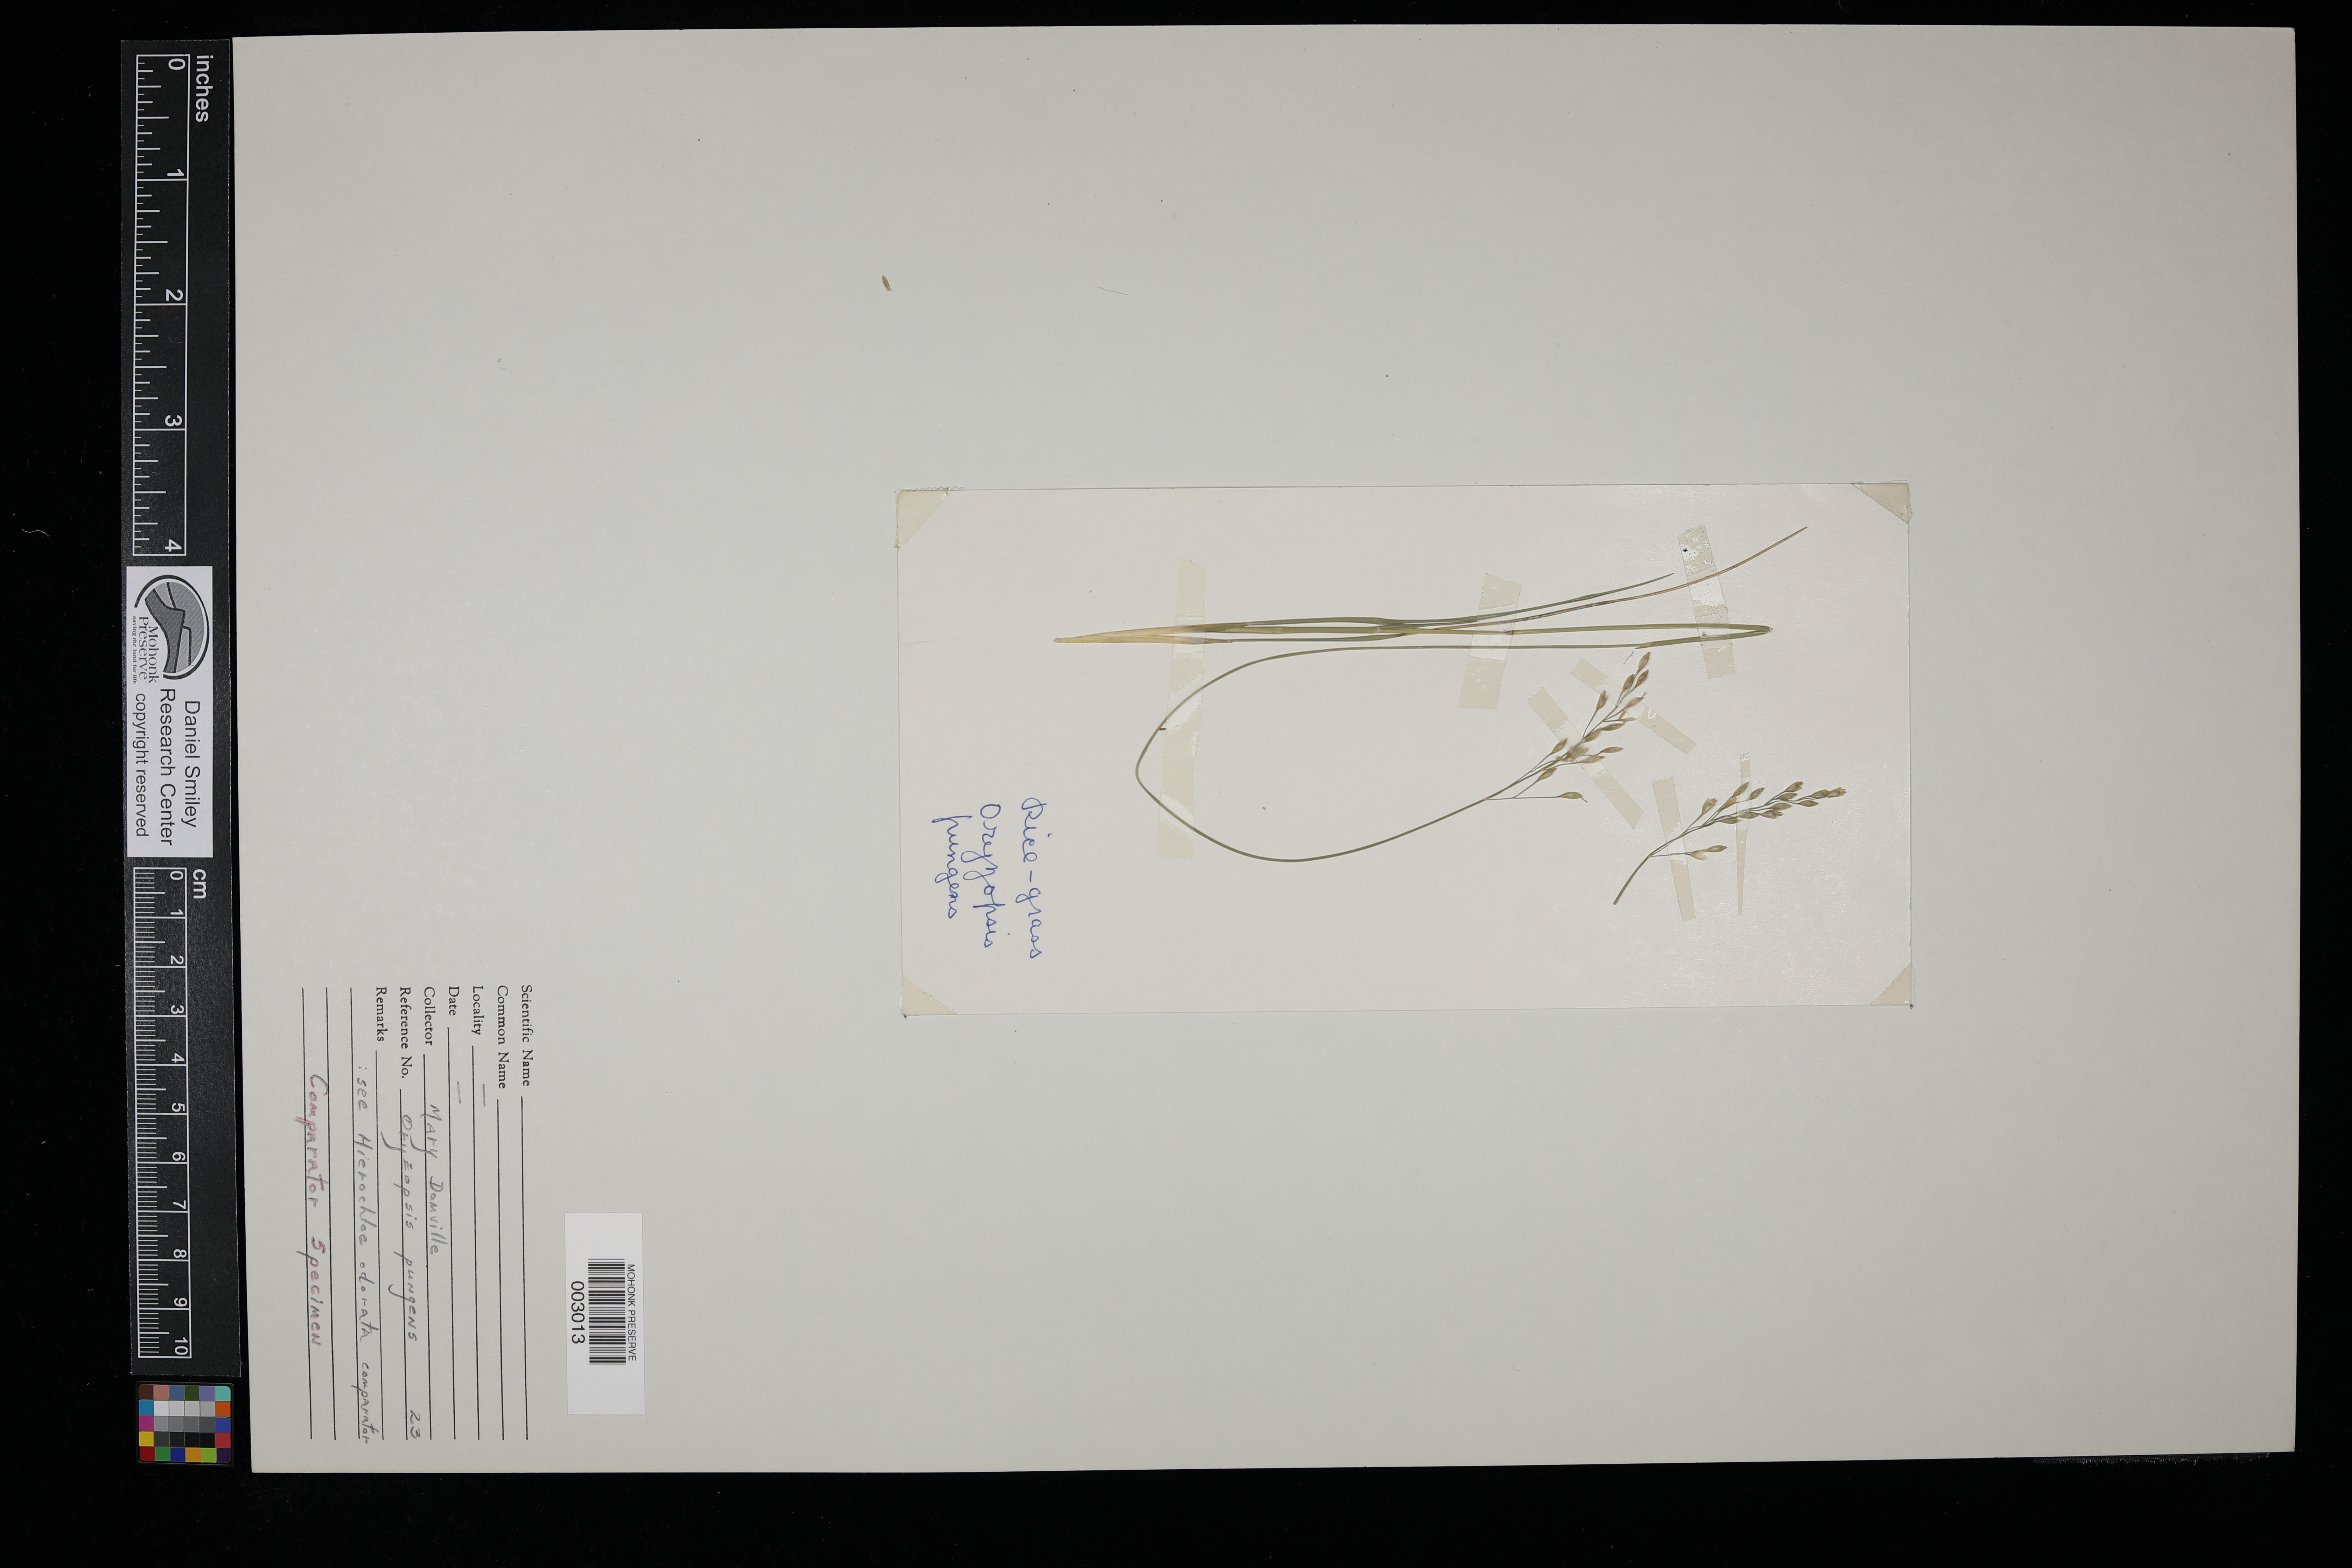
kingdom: Plantae
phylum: Tracheophyta
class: Liliopsida
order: Poales
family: Poaceae
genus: Piptatheropsis
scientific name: Piptatheropsis pungens
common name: Northern ricegrass
